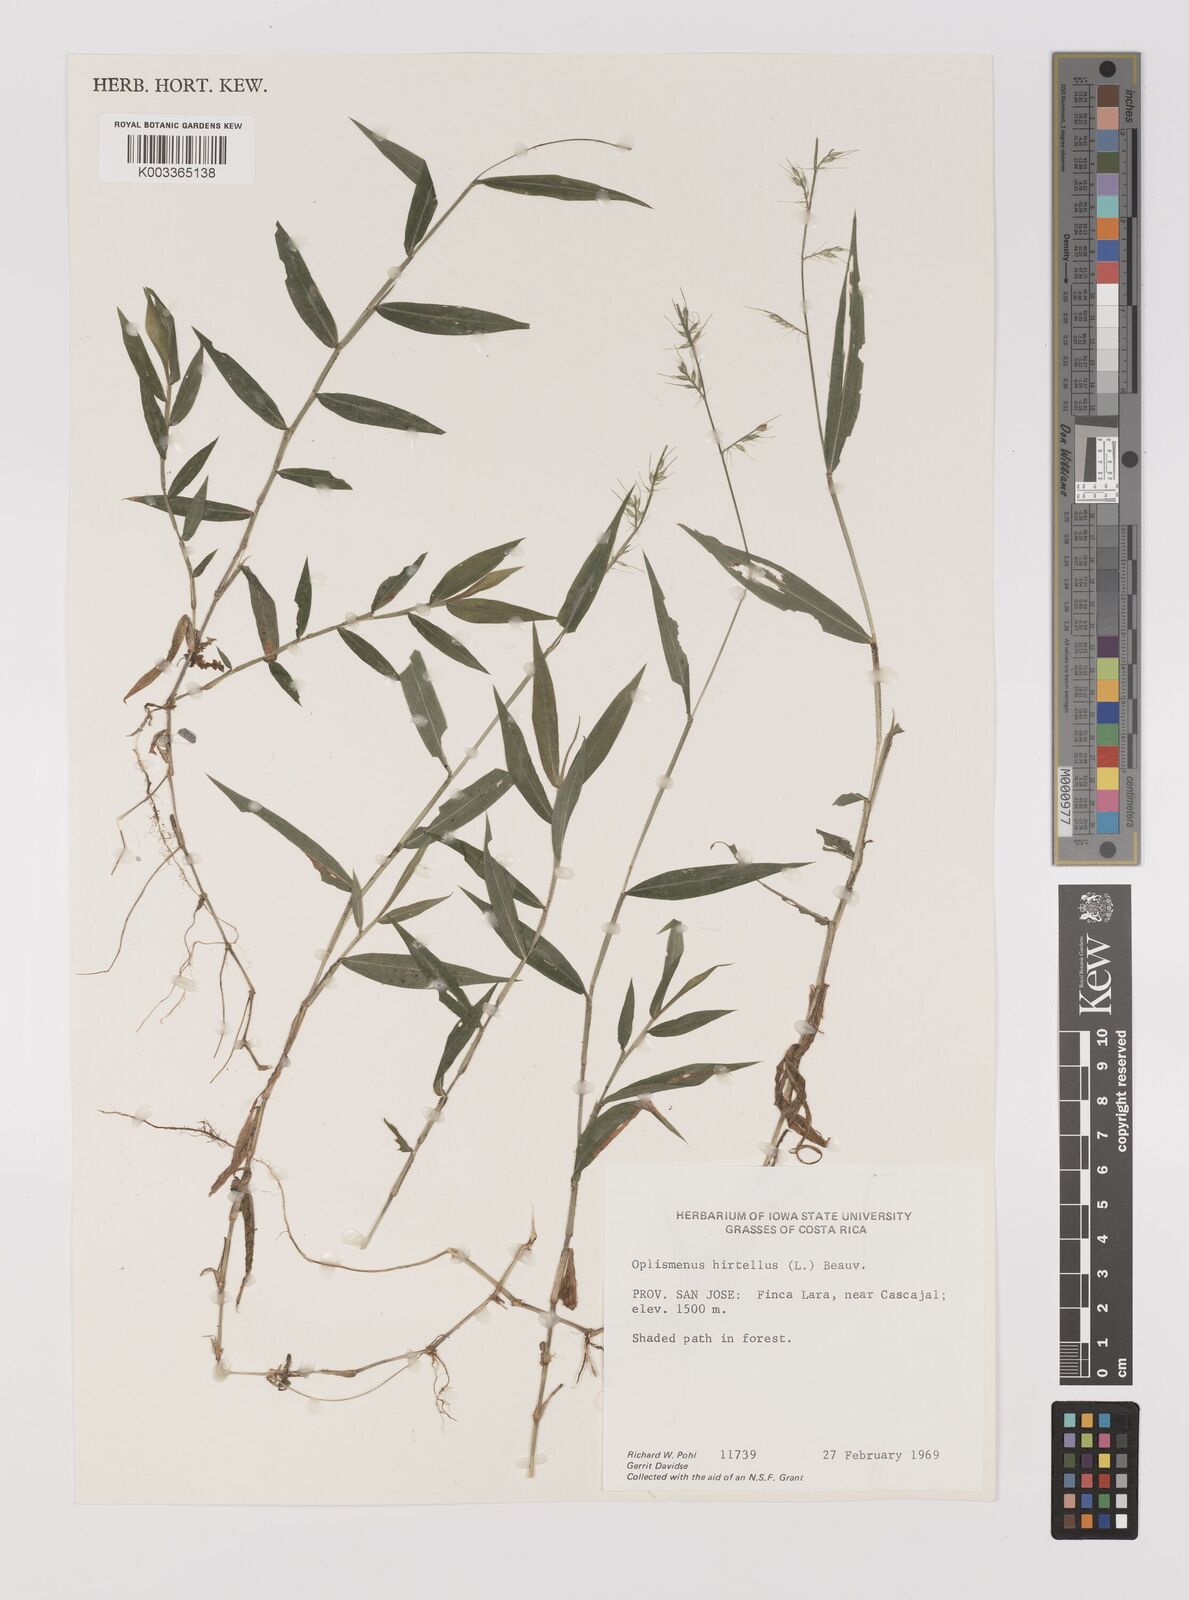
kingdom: Plantae
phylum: Tracheophyta
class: Liliopsida
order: Poales
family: Poaceae
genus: Oplismenus
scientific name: Oplismenus hirtellus
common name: Basketgrass
